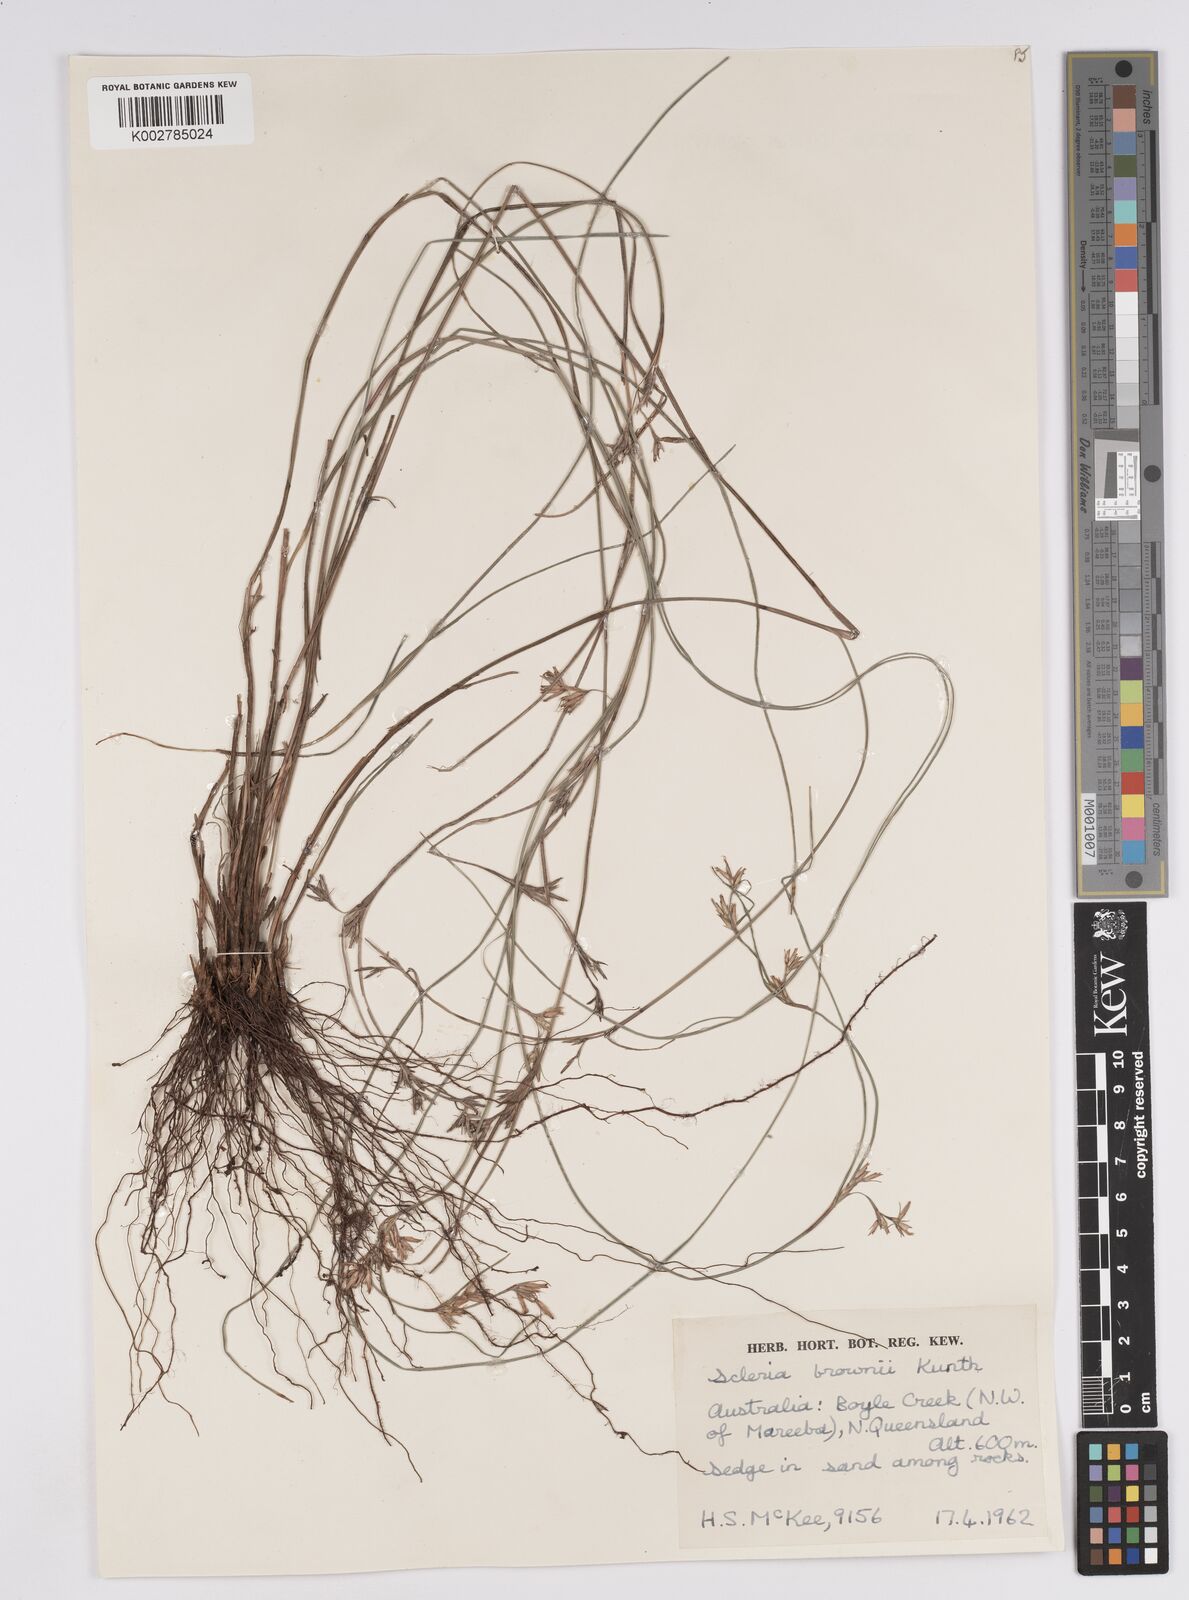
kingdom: Plantae
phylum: Tracheophyta
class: Liliopsida
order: Poales
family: Cyperaceae
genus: Scleria
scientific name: Scleria brownii
